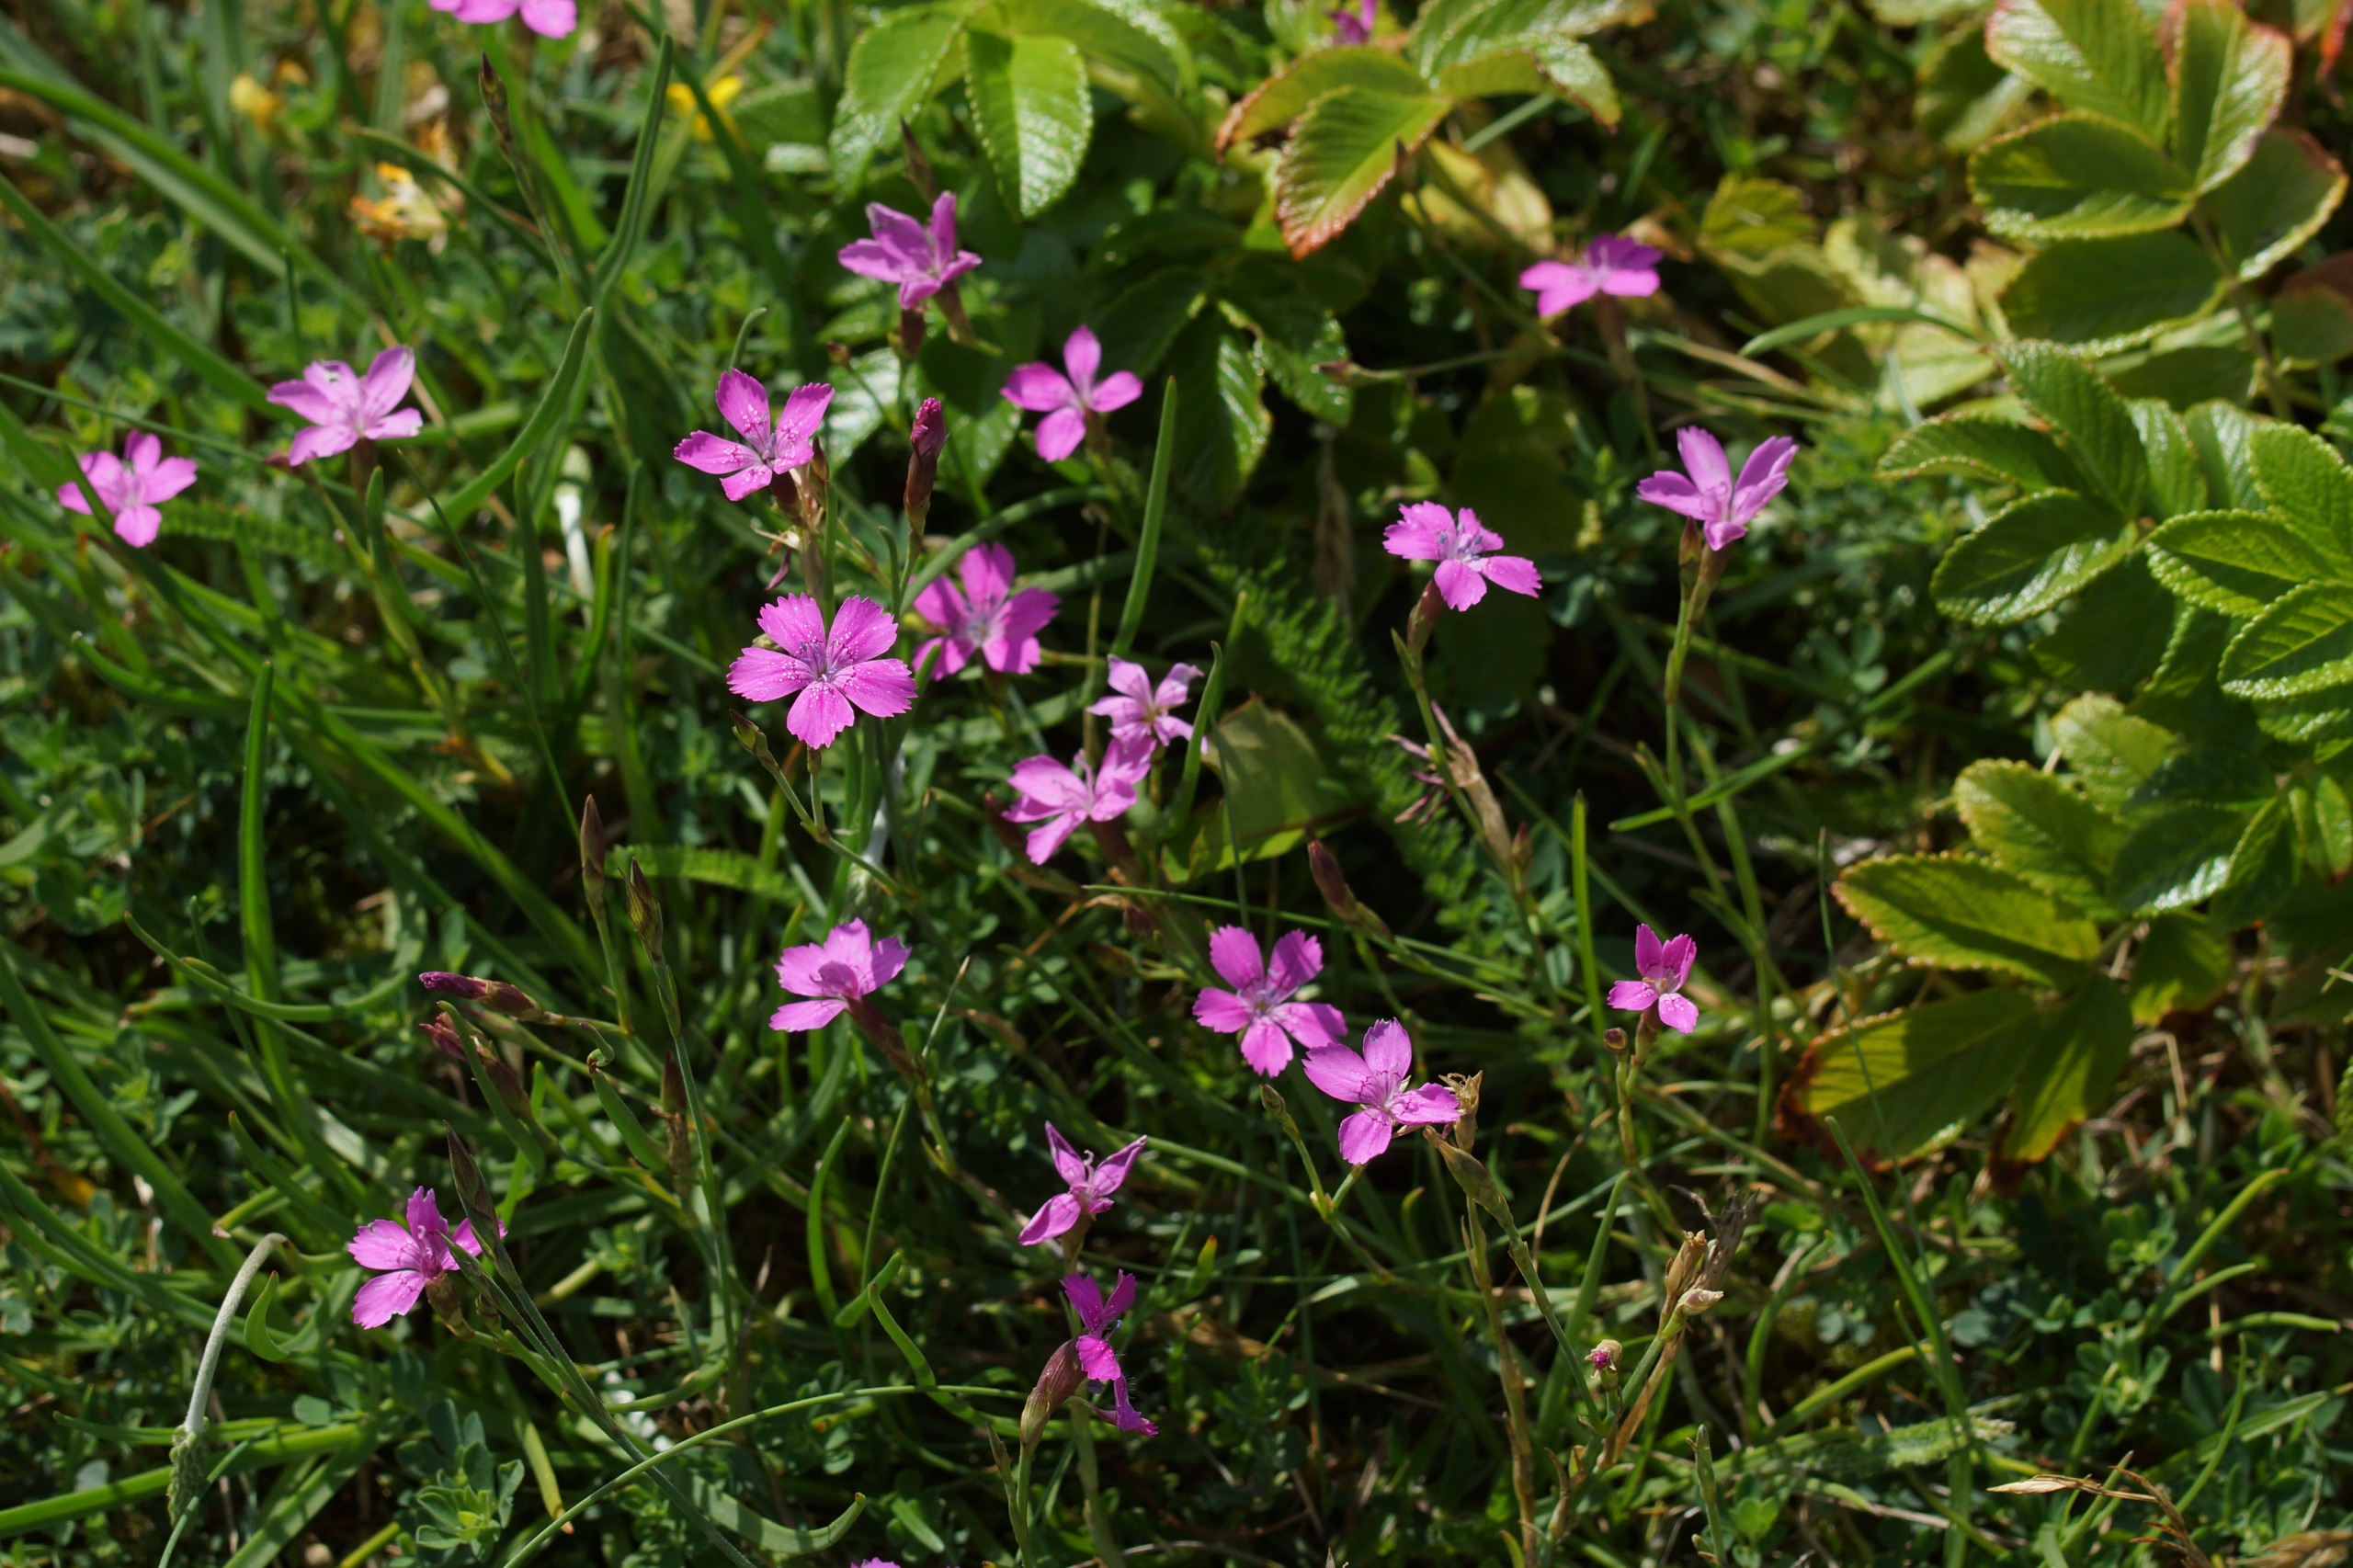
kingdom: Plantae
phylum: Tracheophyta
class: Magnoliopsida
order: Caryophyllales
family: Caryophyllaceae
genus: Dianthus
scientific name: Dianthus deltoides
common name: Bakke-nellike
